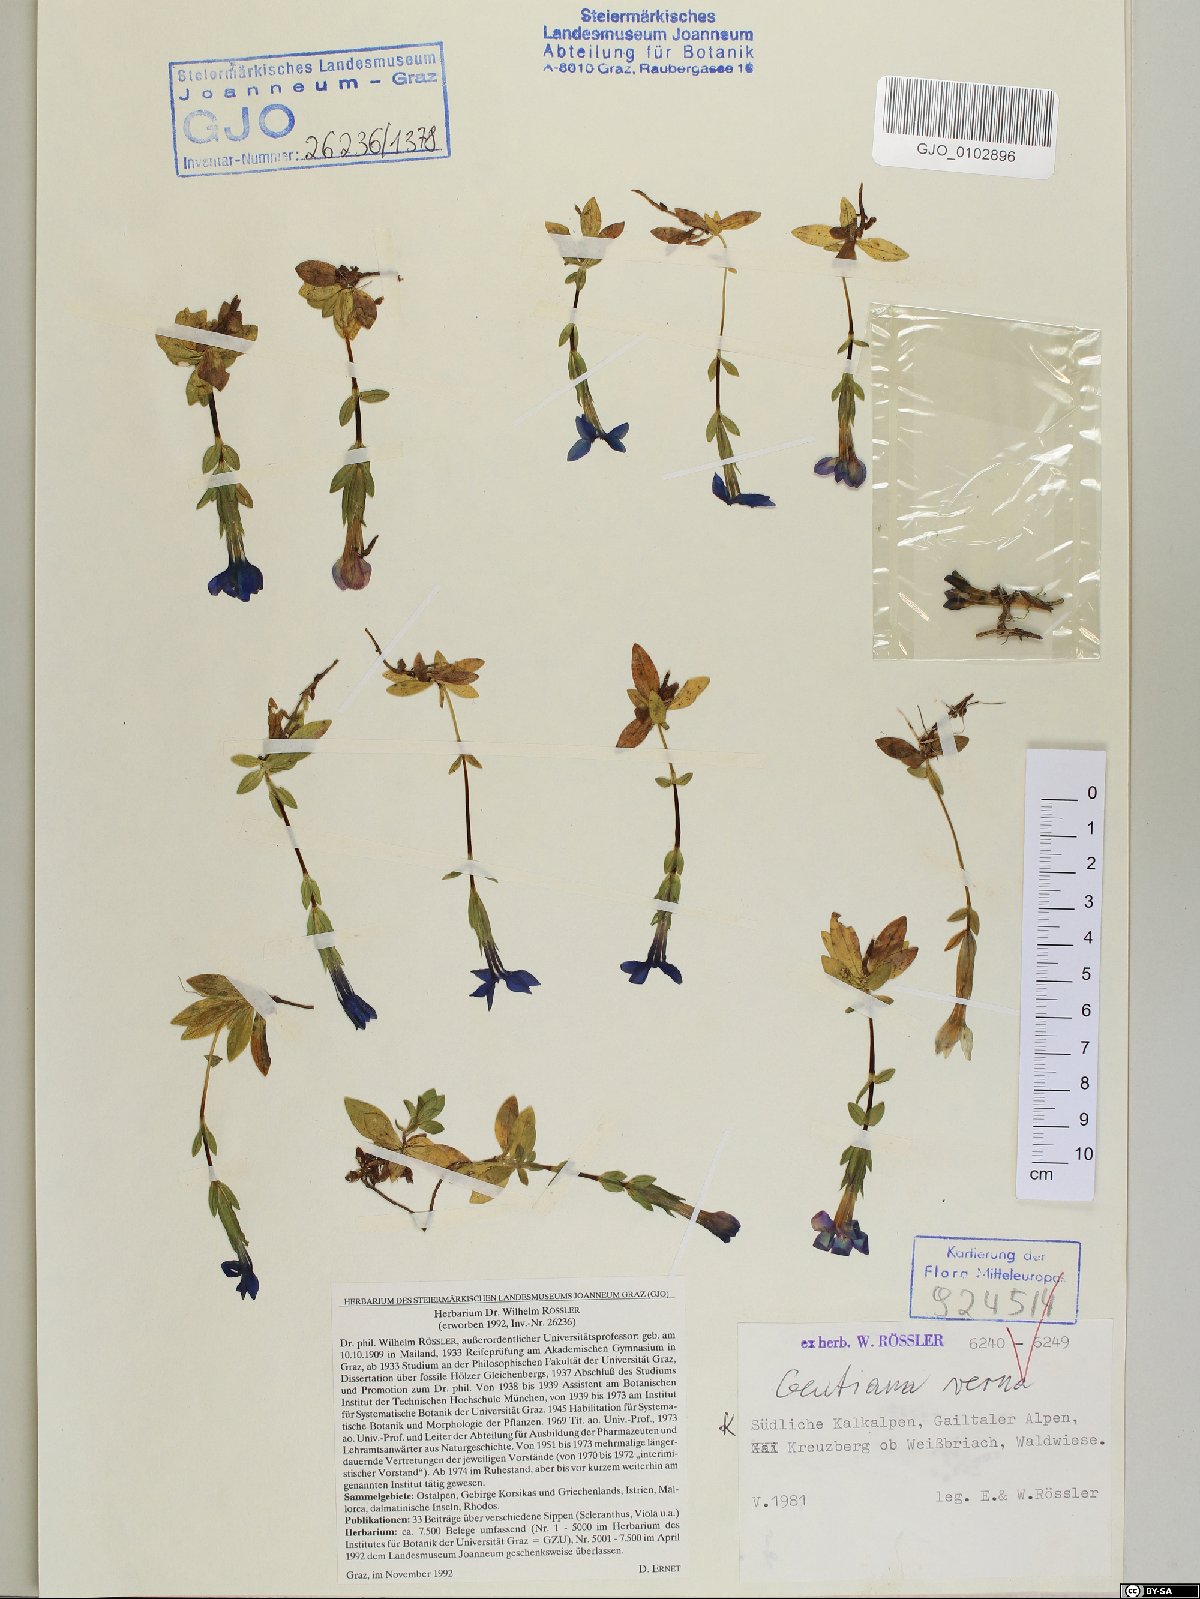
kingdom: Plantae
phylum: Tracheophyta
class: Magnoliopsida
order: Gentianales
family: Gentianaceae
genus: Gentiana
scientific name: Gentiana verna
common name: Spring gentian
